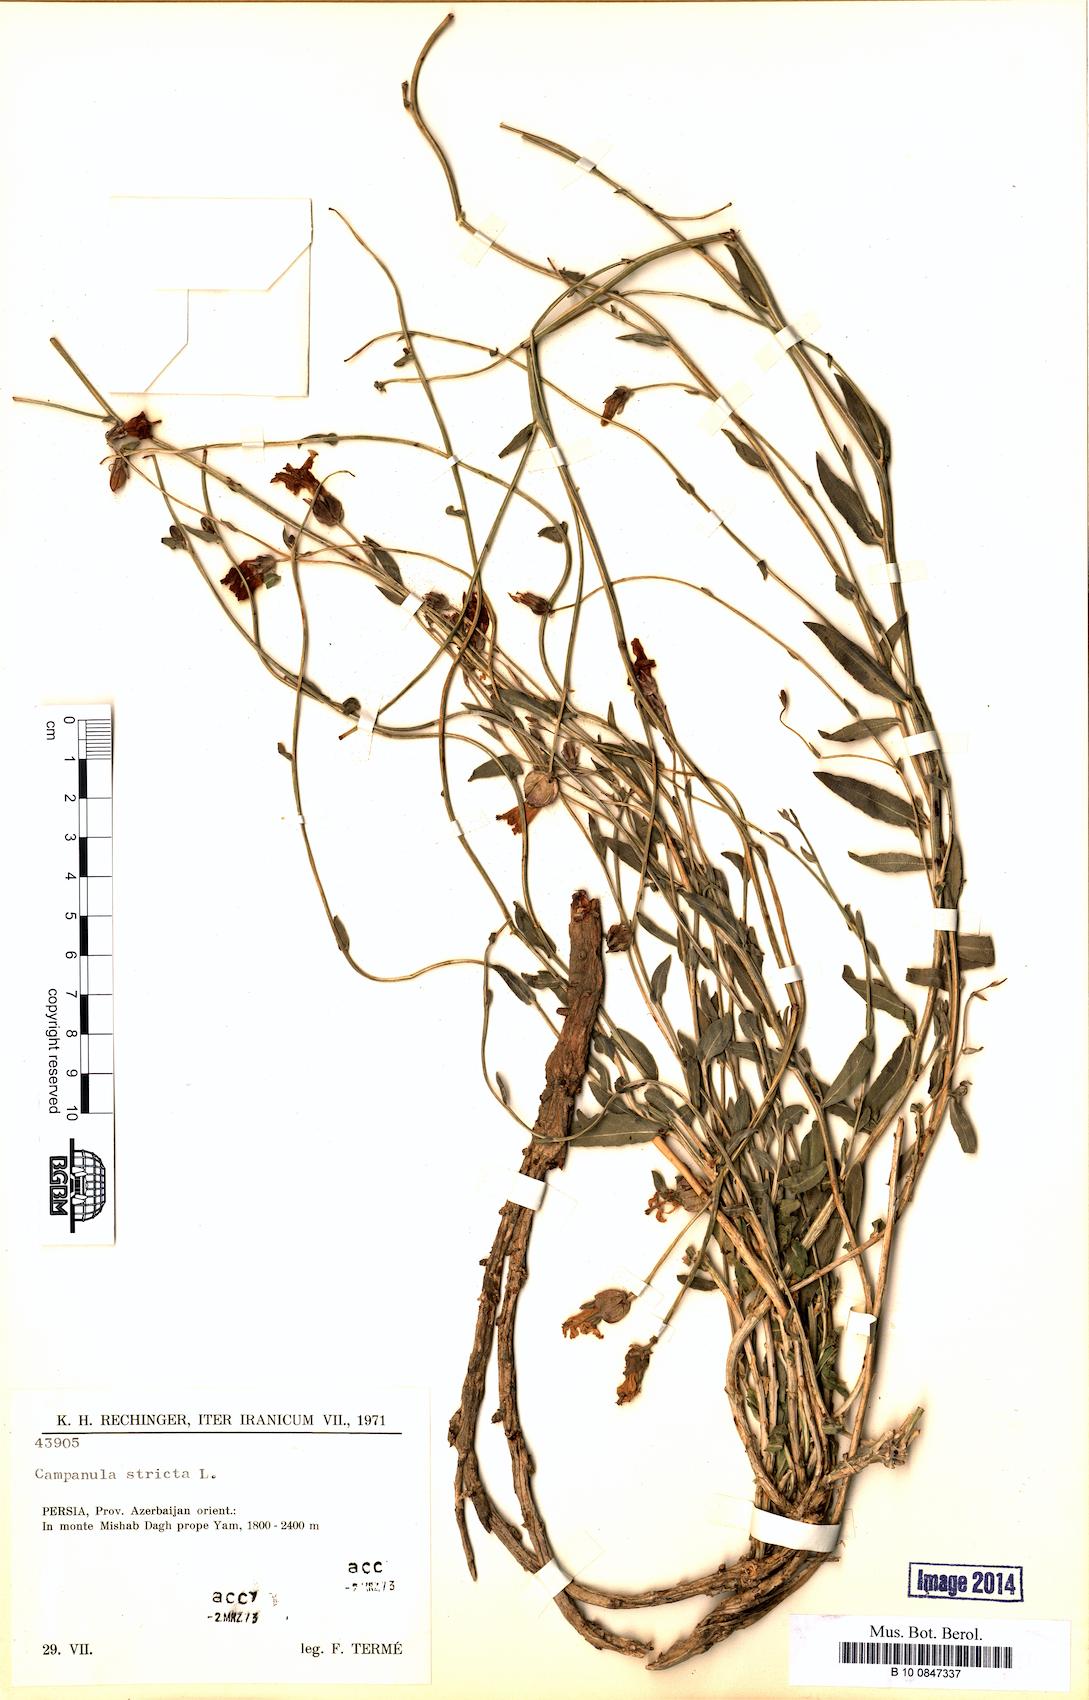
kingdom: Plantae
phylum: Tracheophyta
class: Magnoliopsida
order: Asterales
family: Campanulaceae
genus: Campanula
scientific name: Campanula stricta
